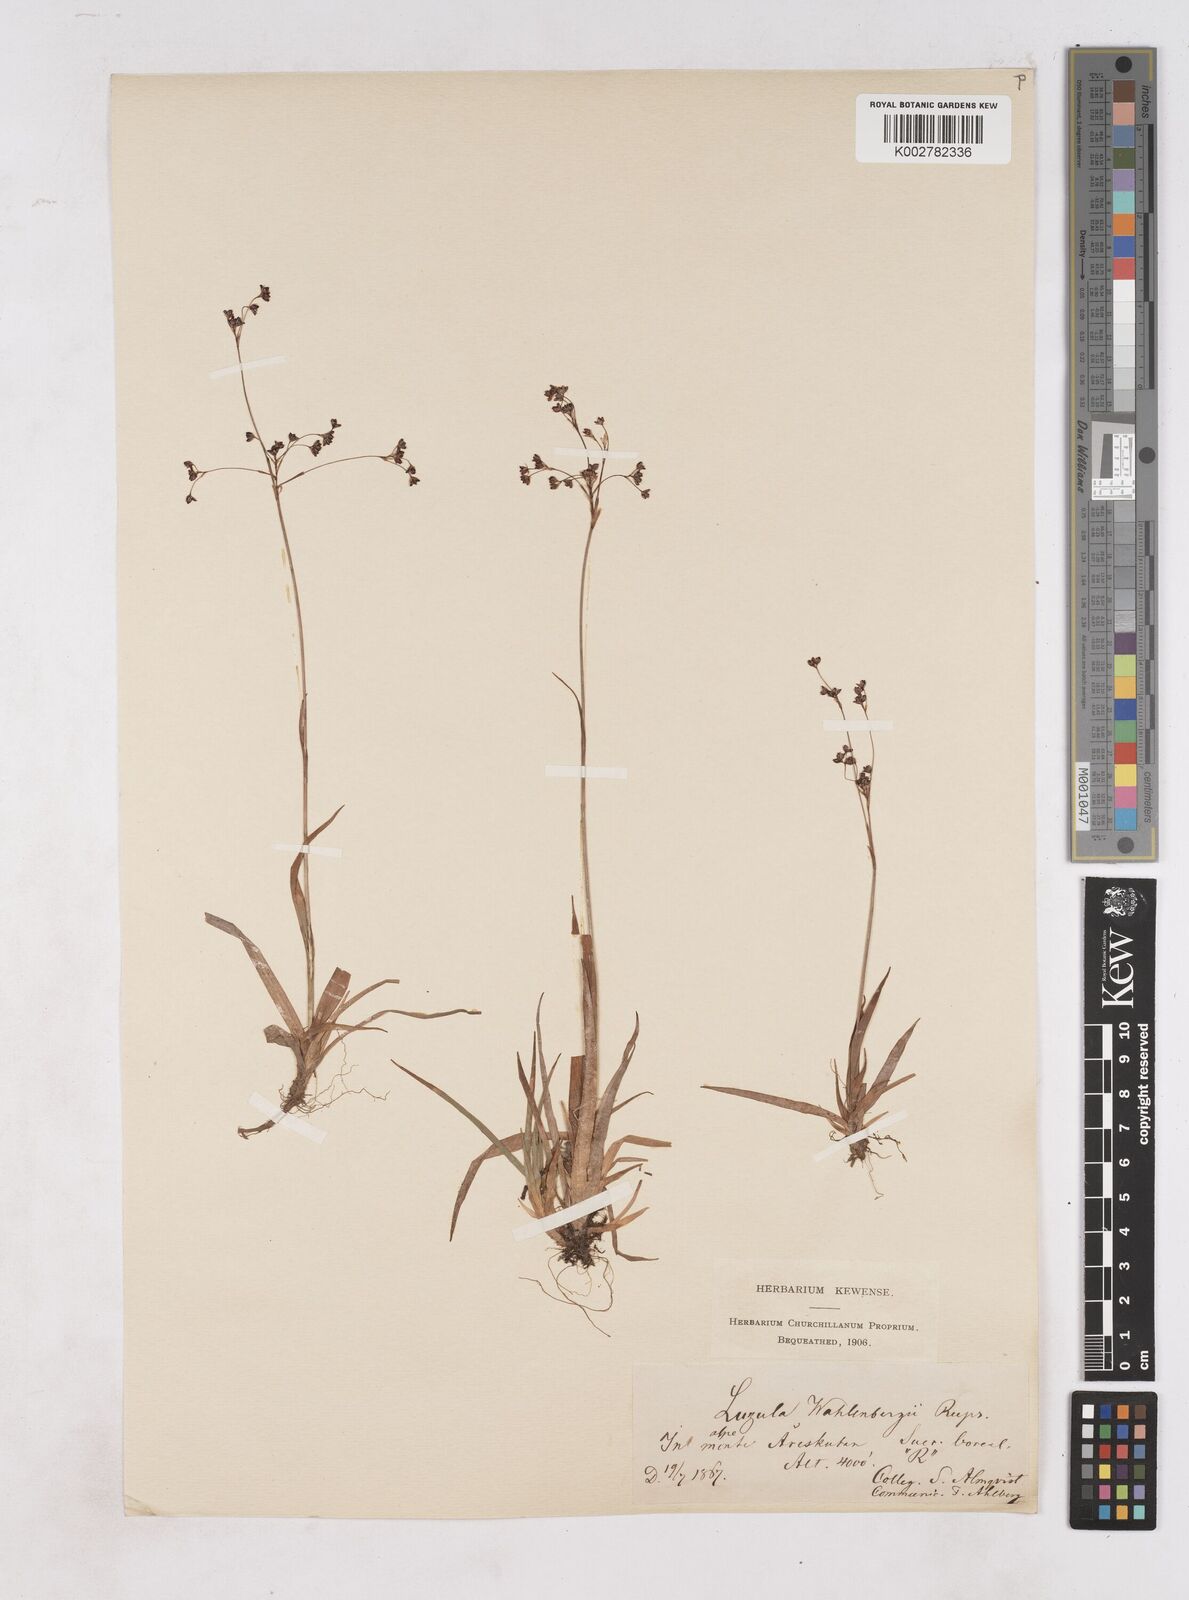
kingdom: Plantae
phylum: Tracheophyta
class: Liliopsida
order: Poales
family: Juncaceae
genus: Luzula
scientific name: Luzula alpinopilosa
